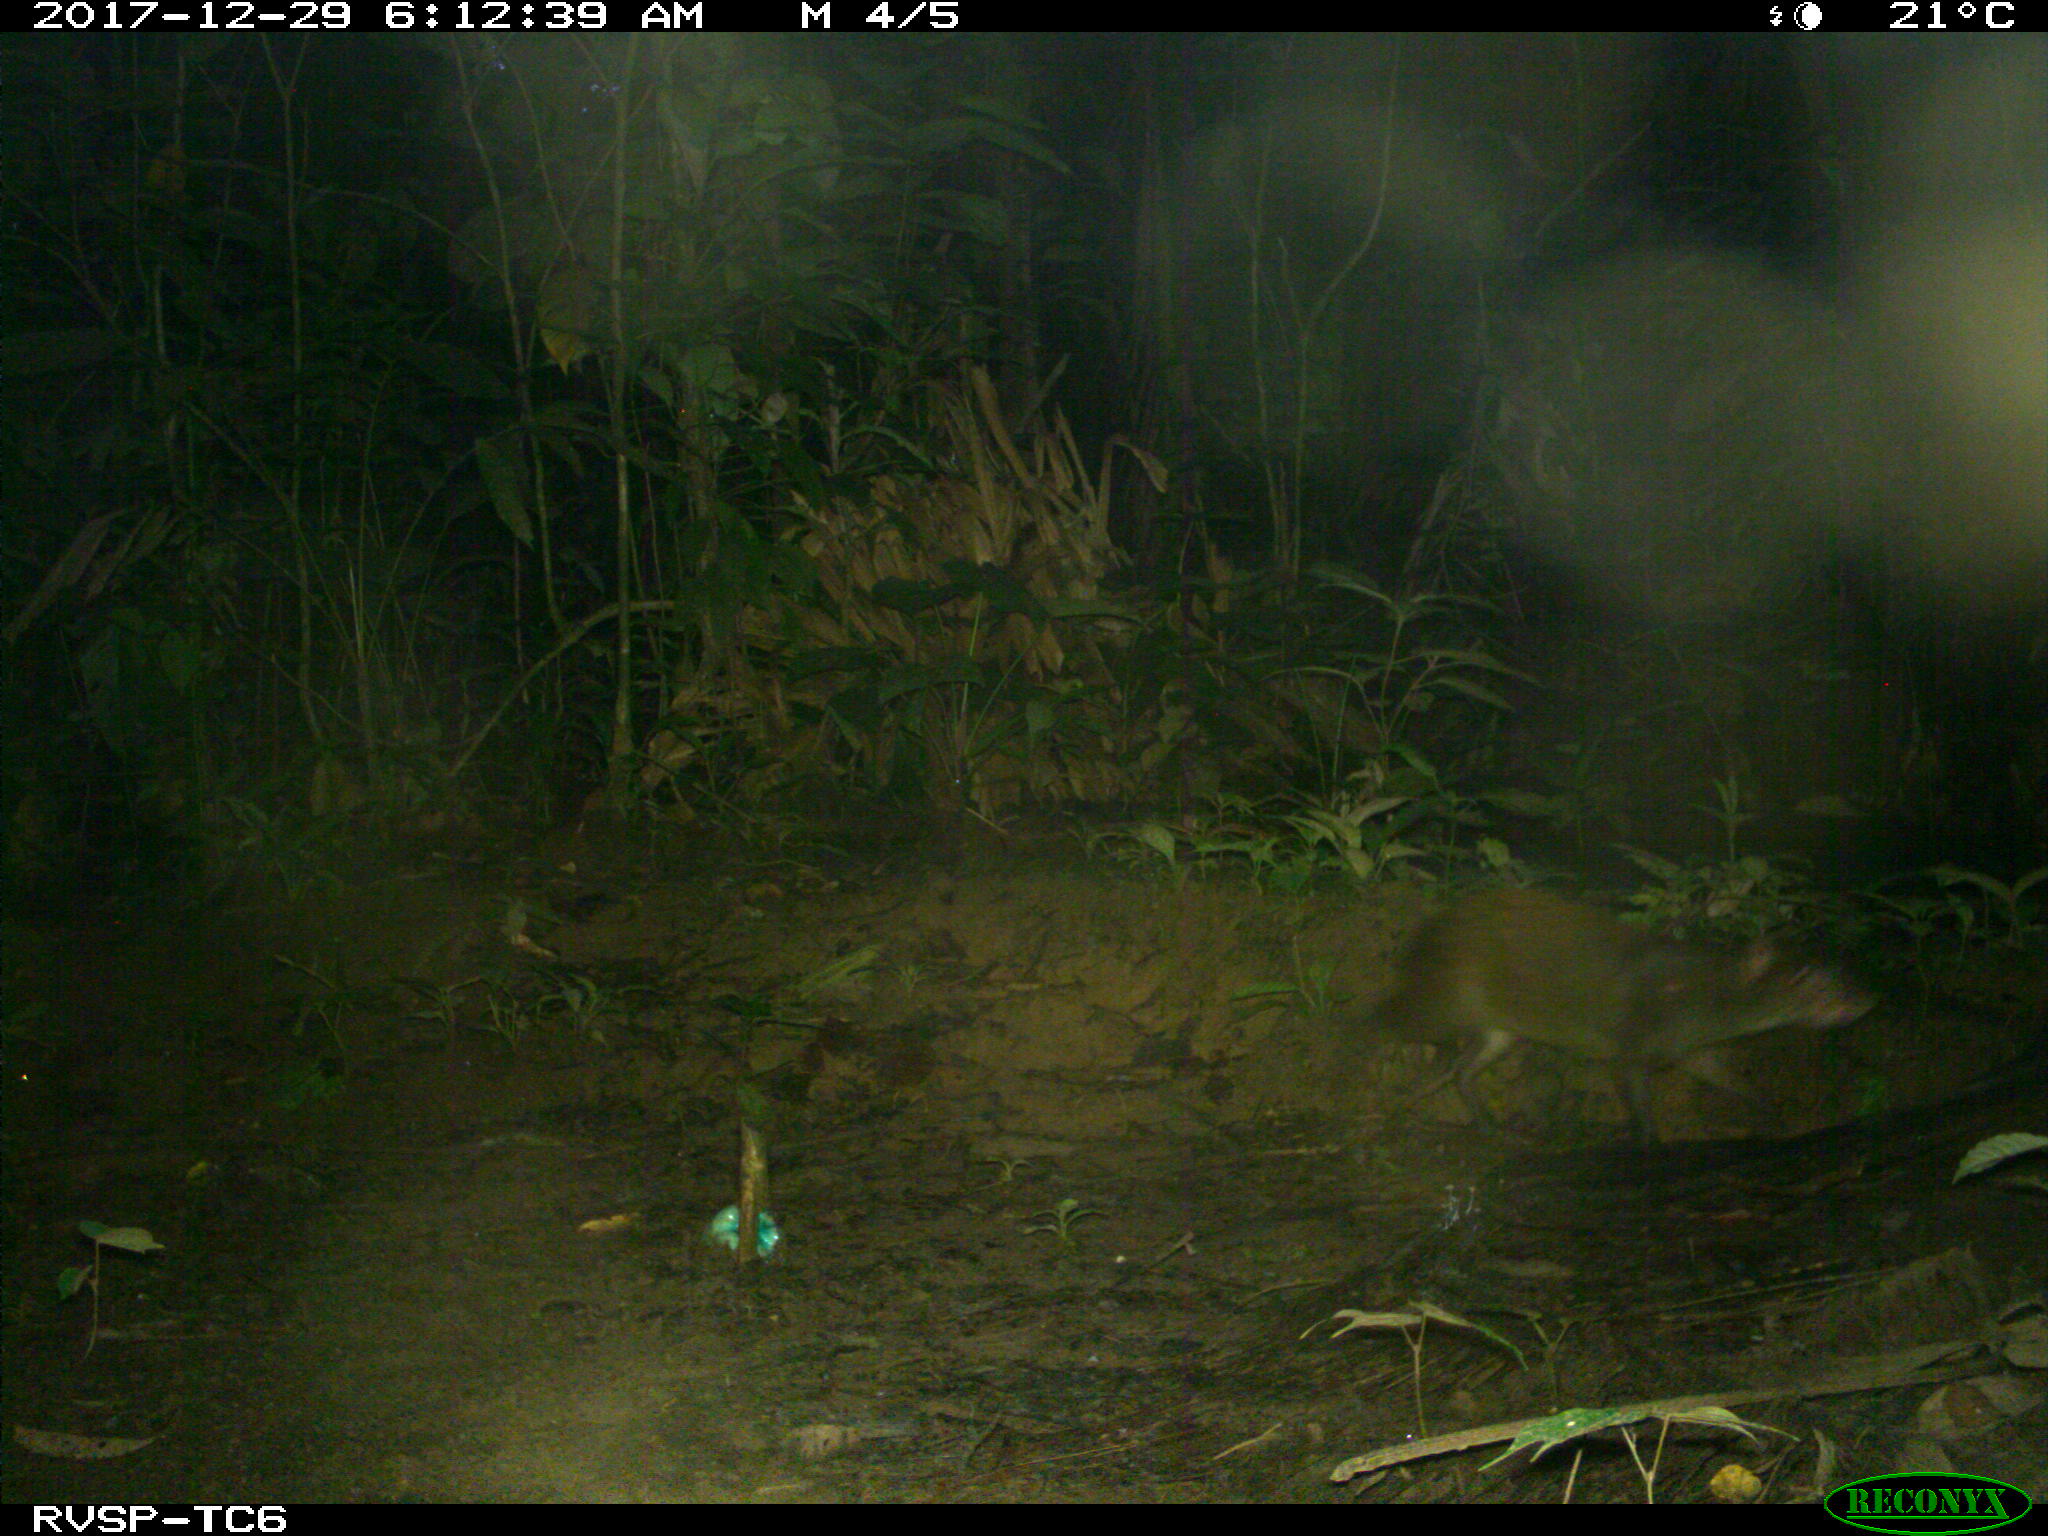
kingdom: Animalia
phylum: Chordata
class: Mammalia
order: Rodentia
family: Dasyproctidae
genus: Dasyprocta
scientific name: Dasyprocta punctata
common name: Central american agouti
